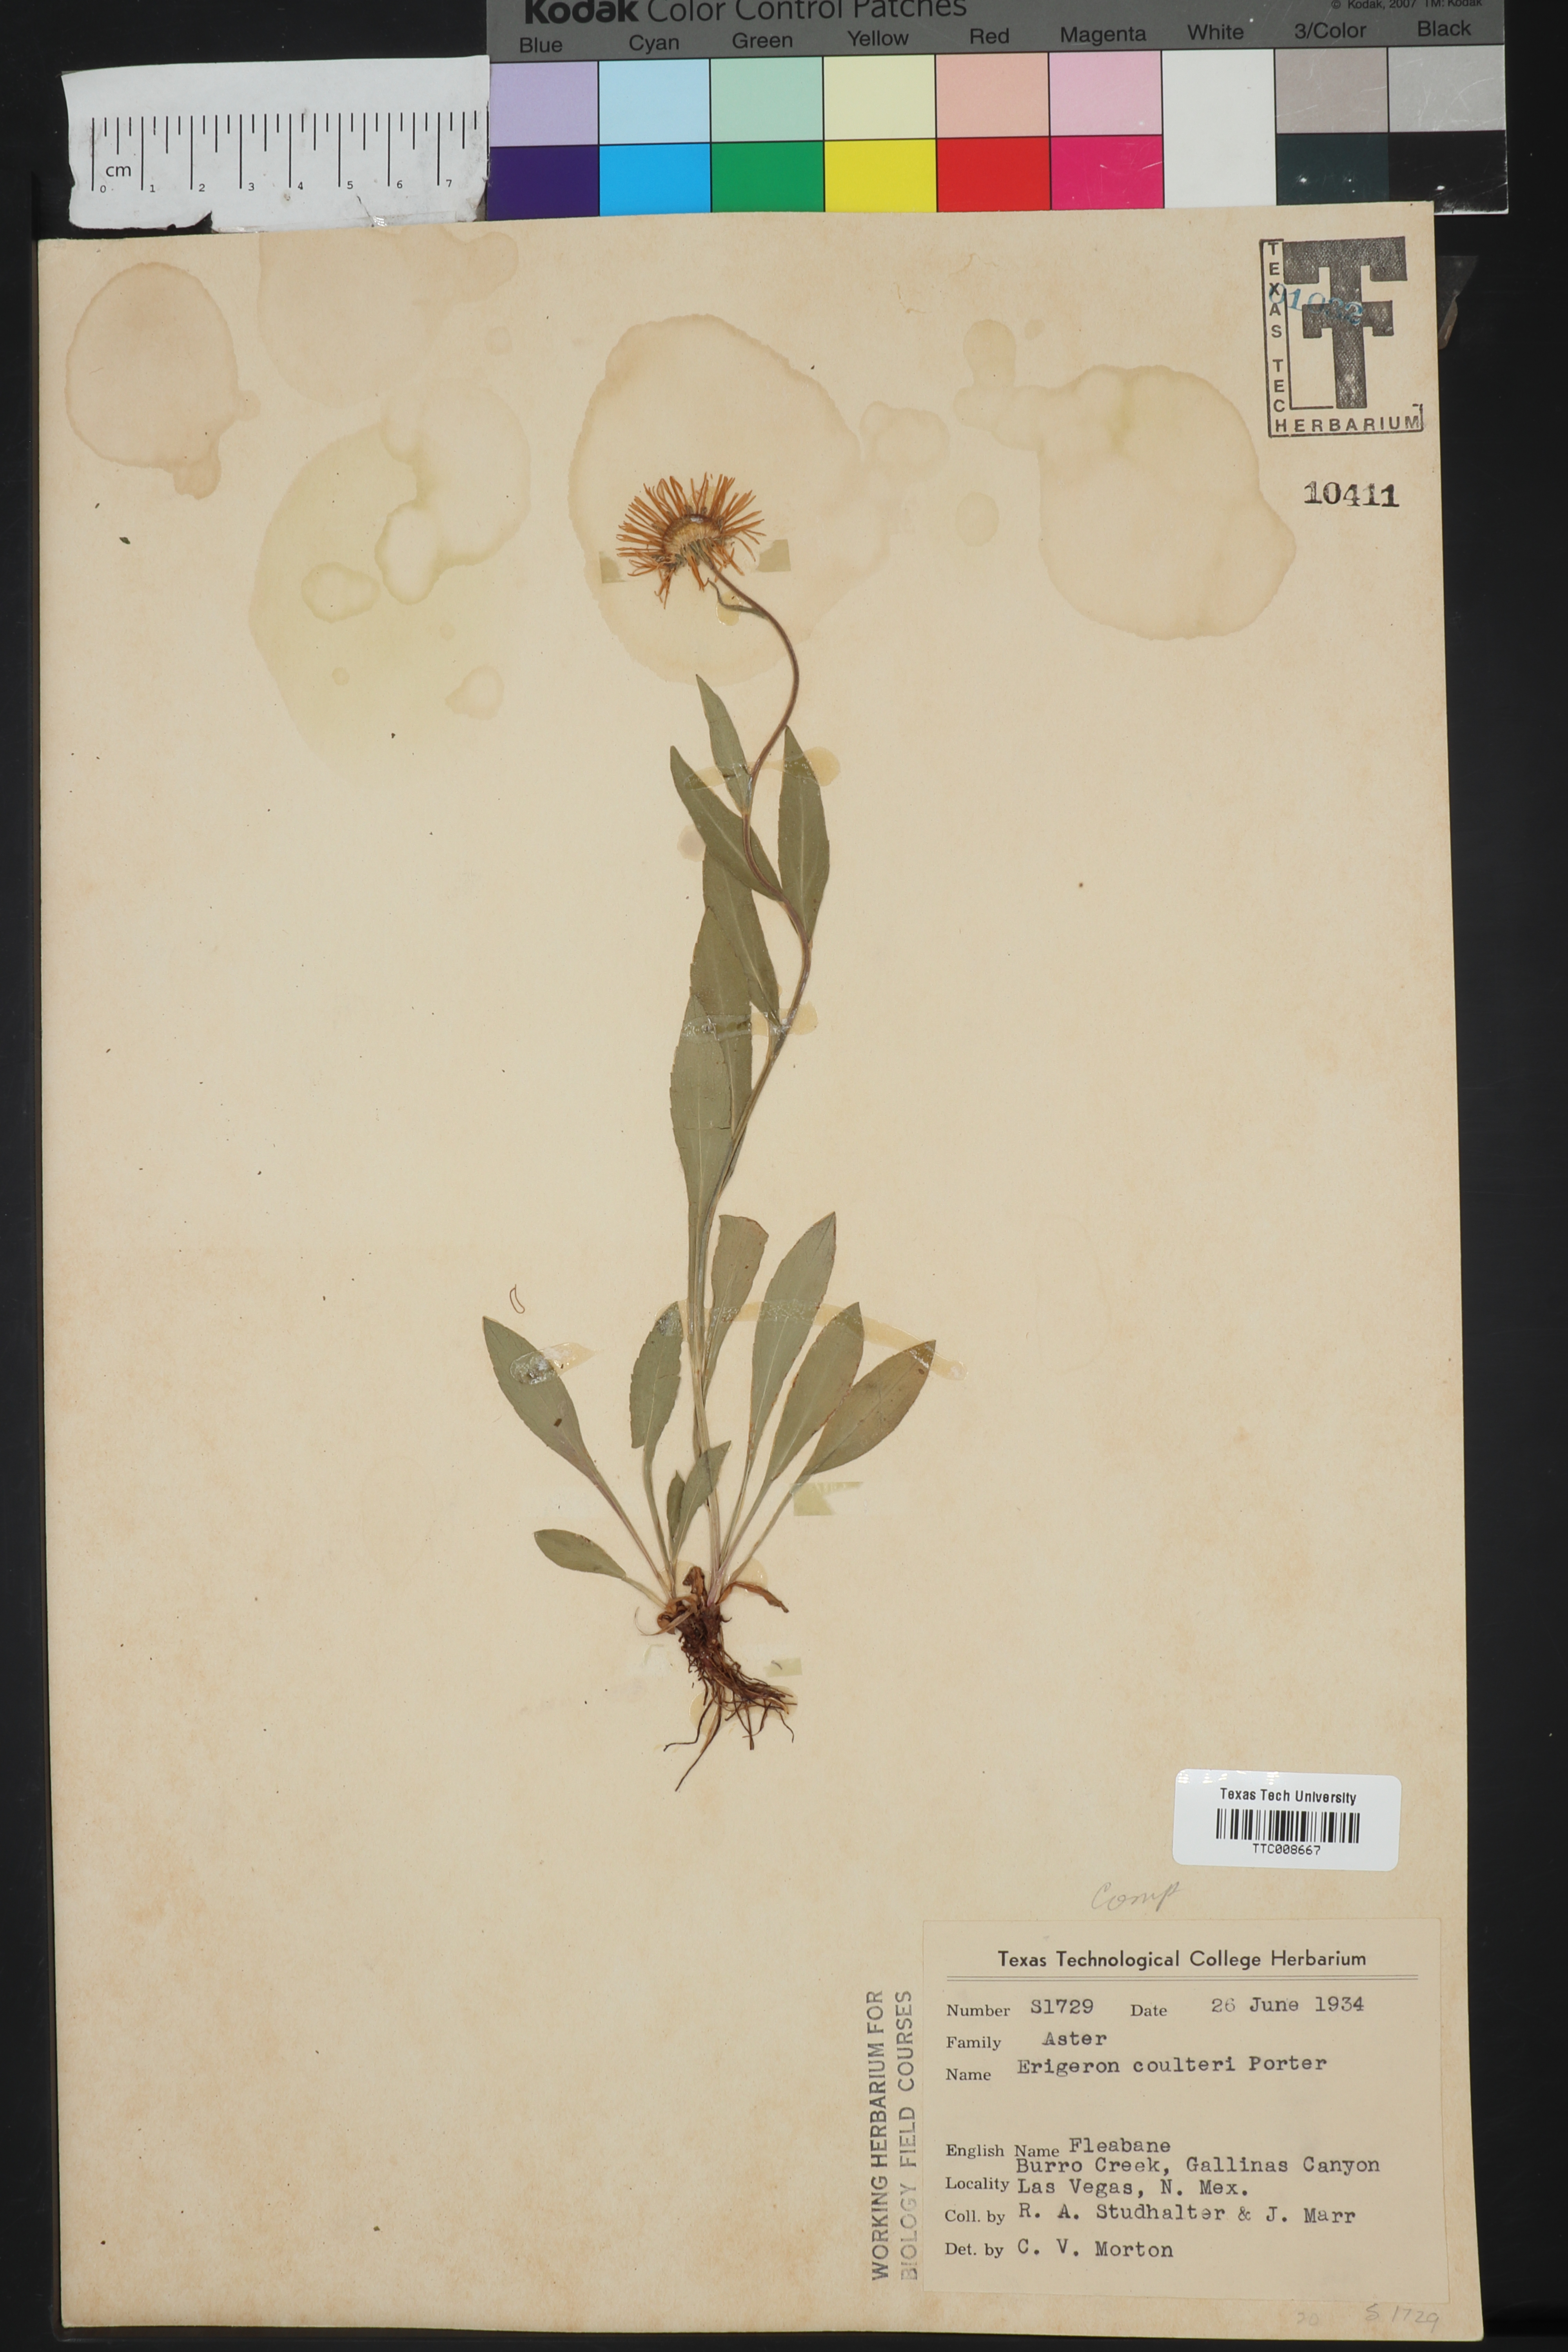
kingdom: Plantae
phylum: Tracheophyta
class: Magnoliopsida
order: Asterales
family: Asteraceae
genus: Erigeron
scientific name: Erigeron coulteri
